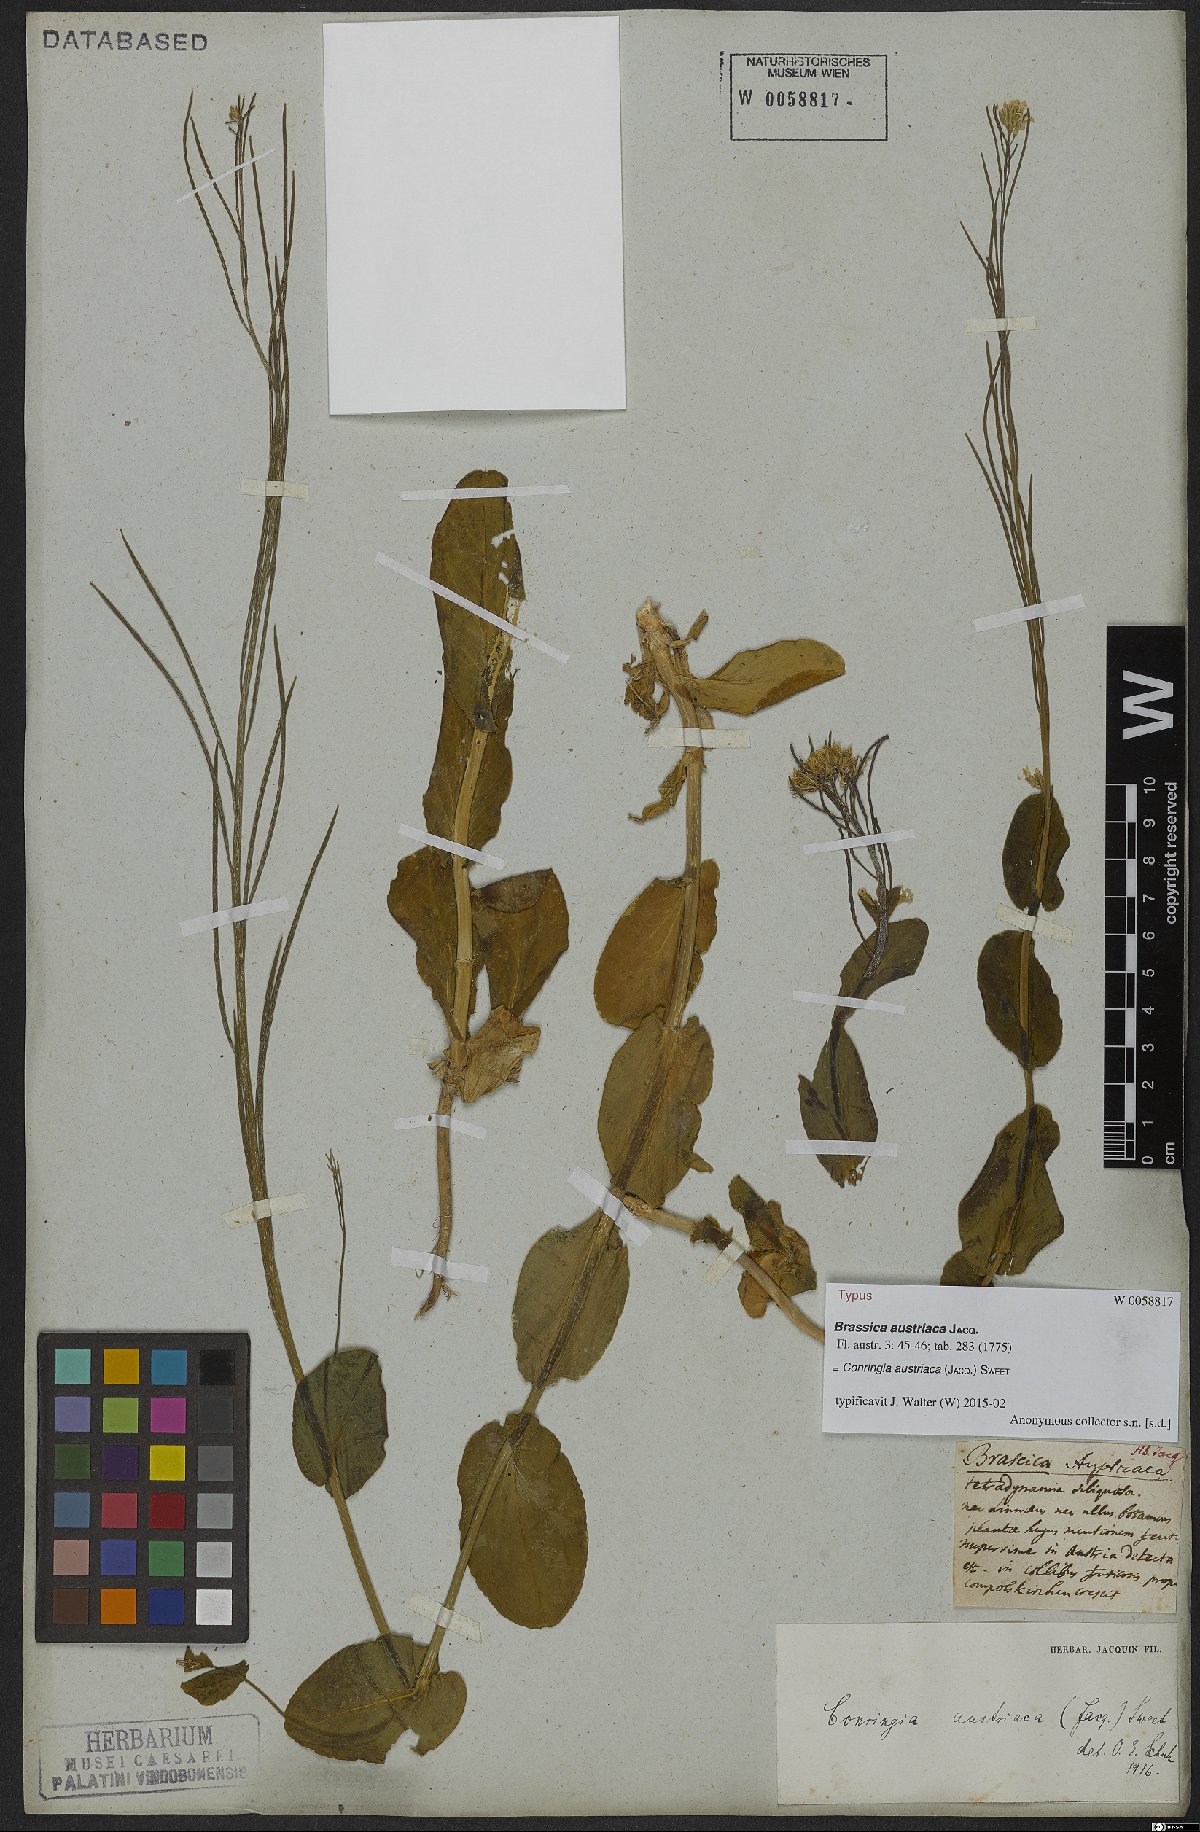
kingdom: Plantae
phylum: Tracheophyta
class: Magnoliopsida
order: Brassicales
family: Brassicaceae
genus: Conringia
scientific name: Conringia austriaca
